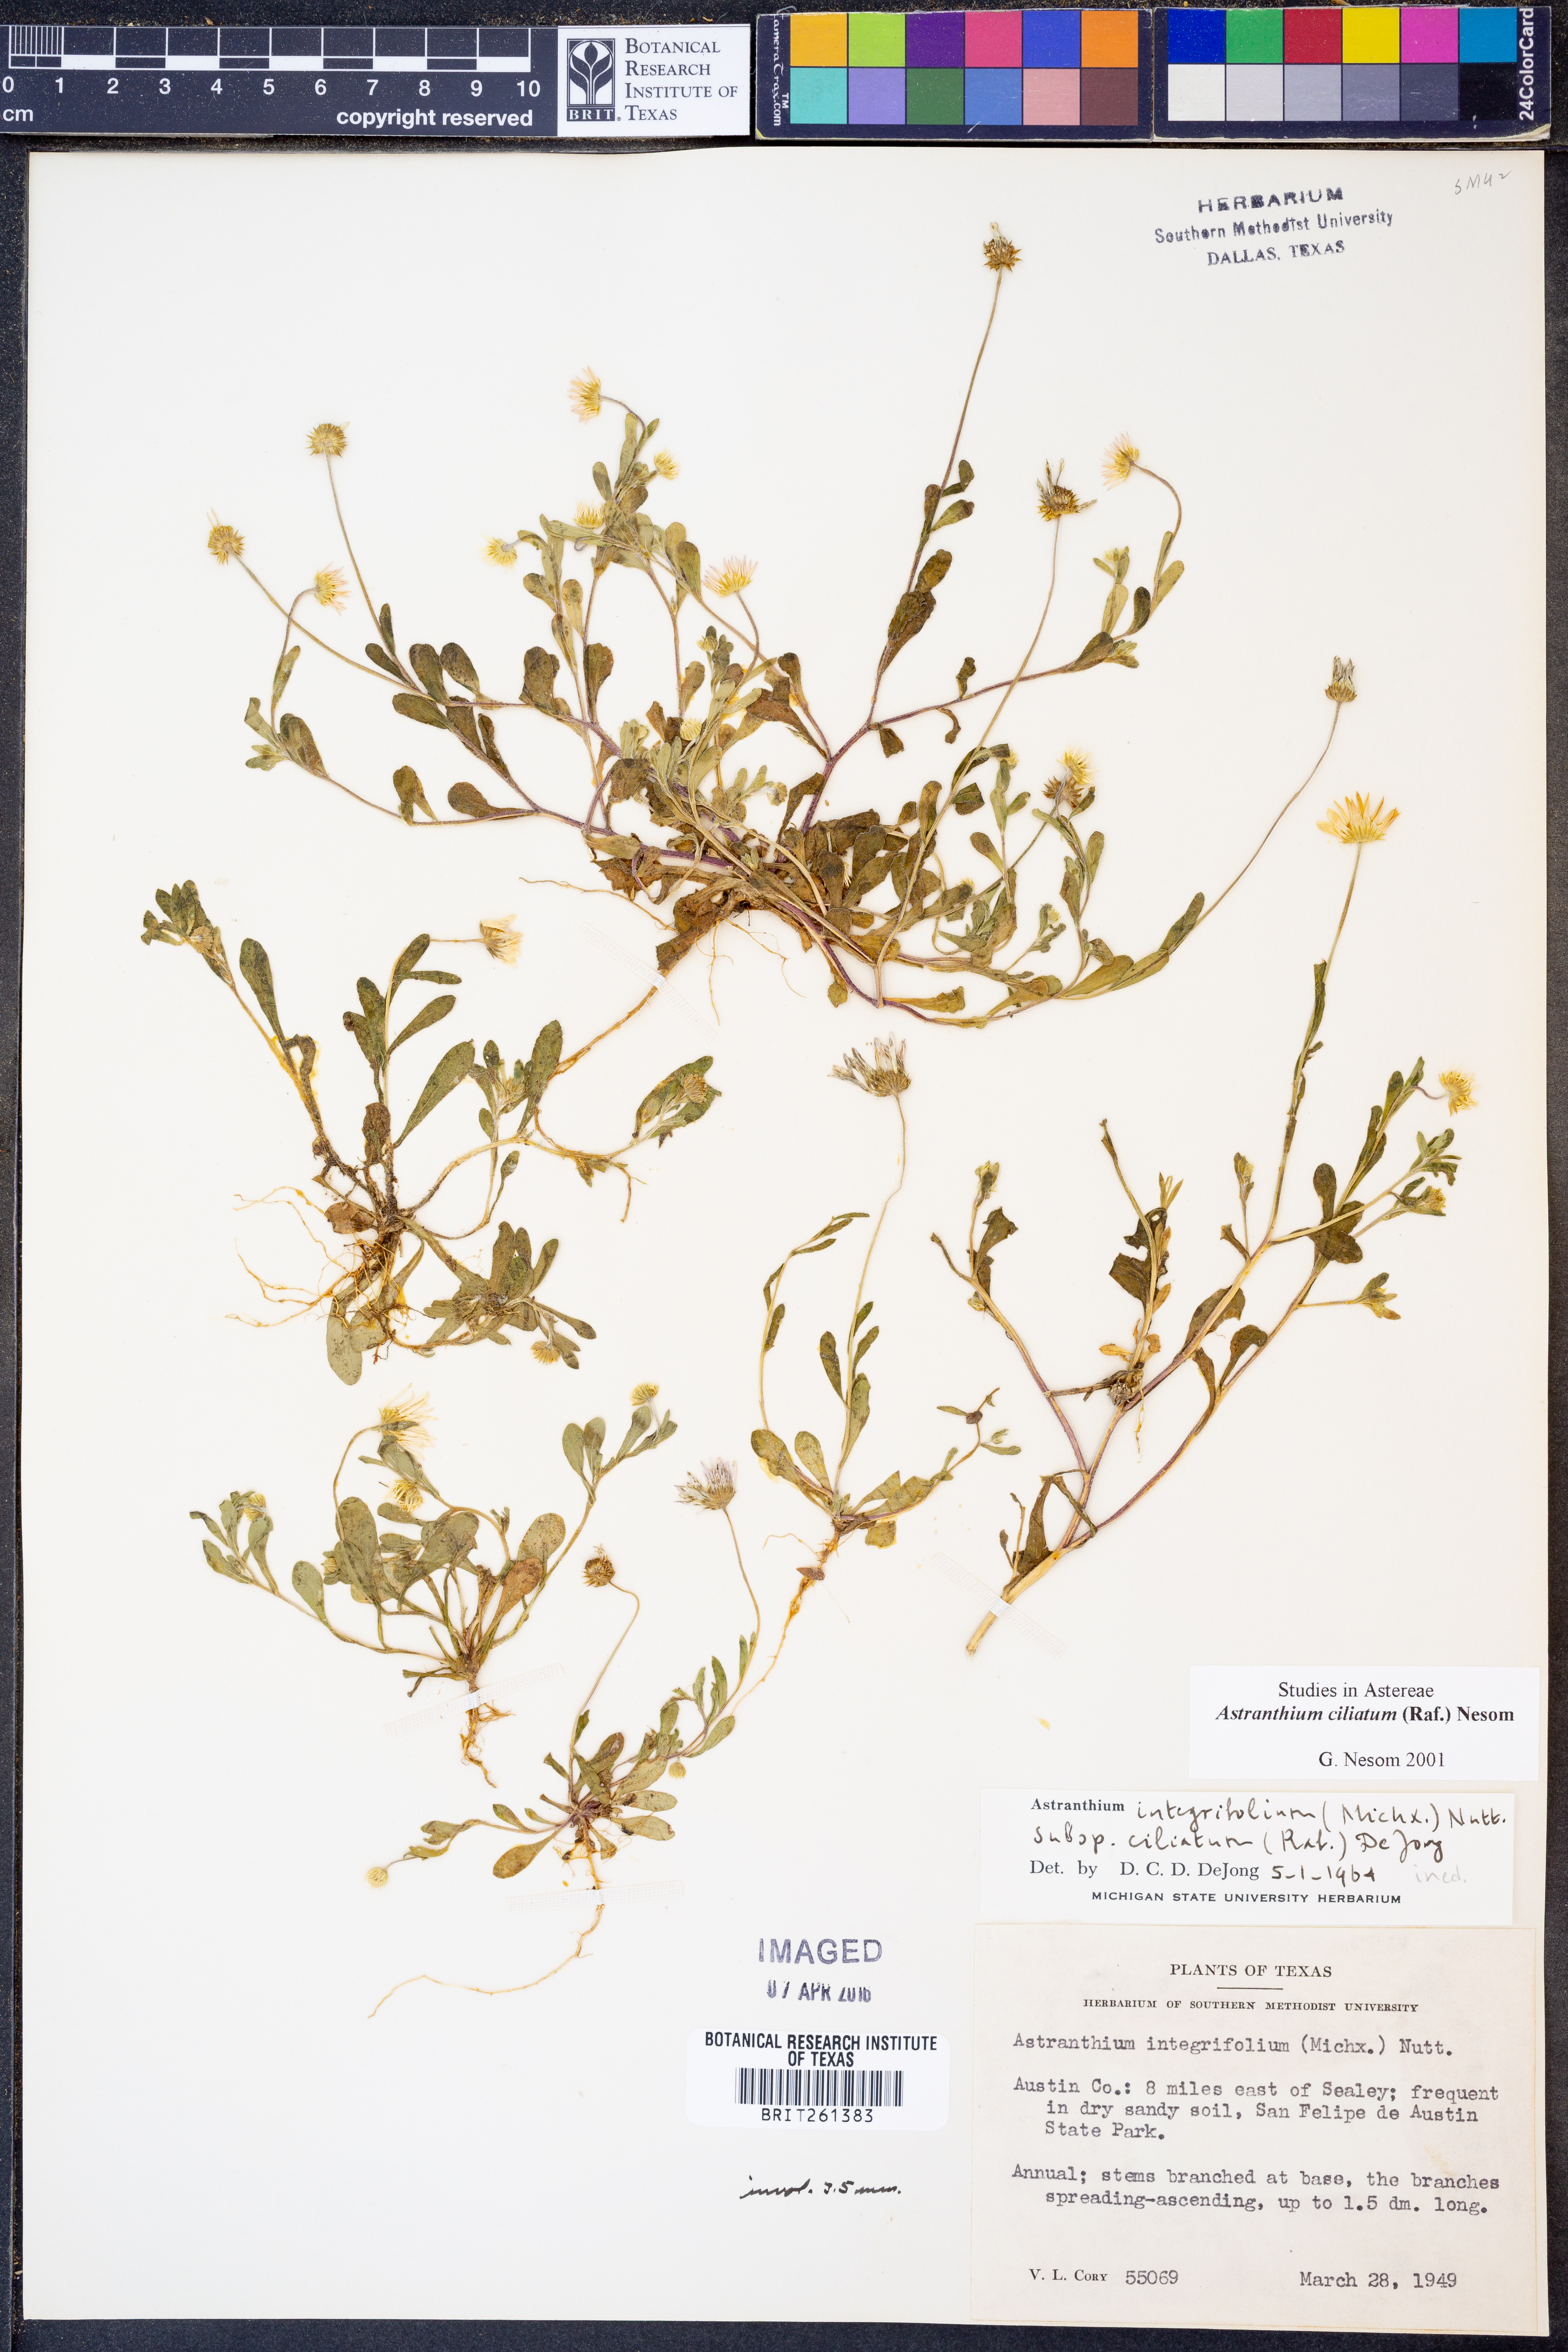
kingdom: Plantae
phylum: Tracheophyta
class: Magnoliopsida
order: Asterales
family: Asteraceae
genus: Astranthium
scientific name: Astranthium ciliatum
